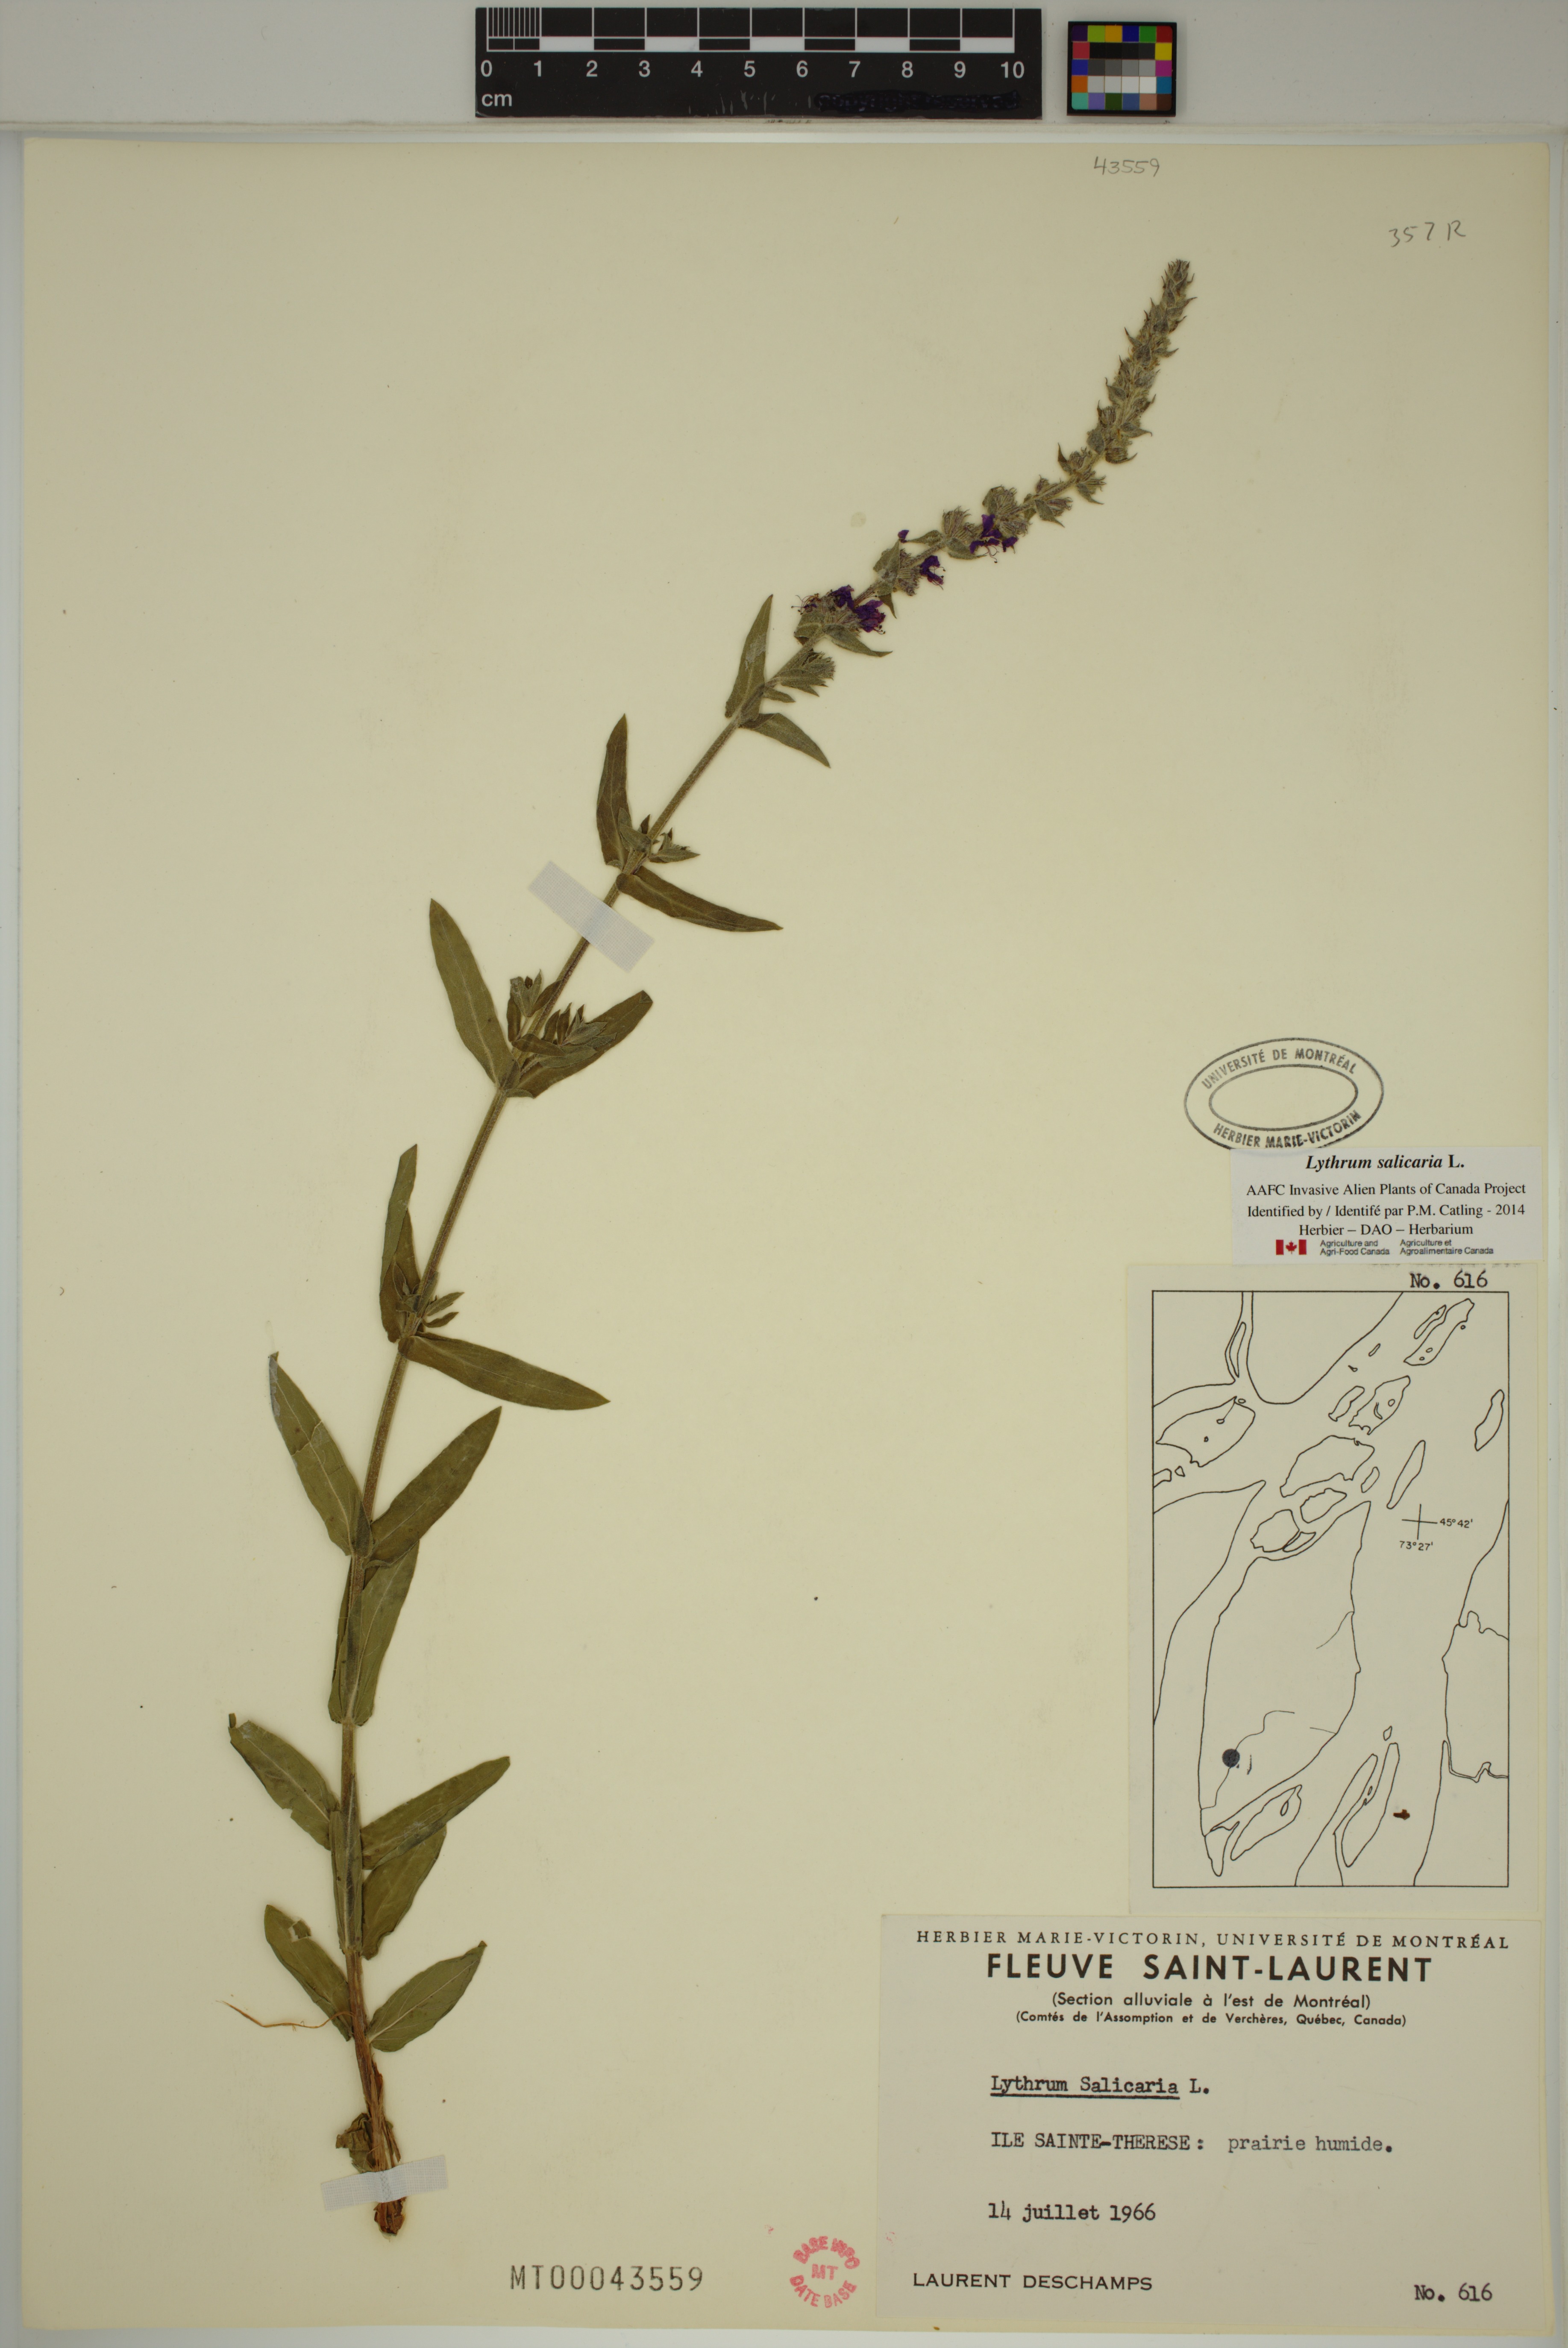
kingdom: Plantae
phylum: Tracheophyta
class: Magnoliopsida
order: Myrtales
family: Lythraceae
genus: Lythrum
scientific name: Lythrum salicaria
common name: Purple loosestrife
